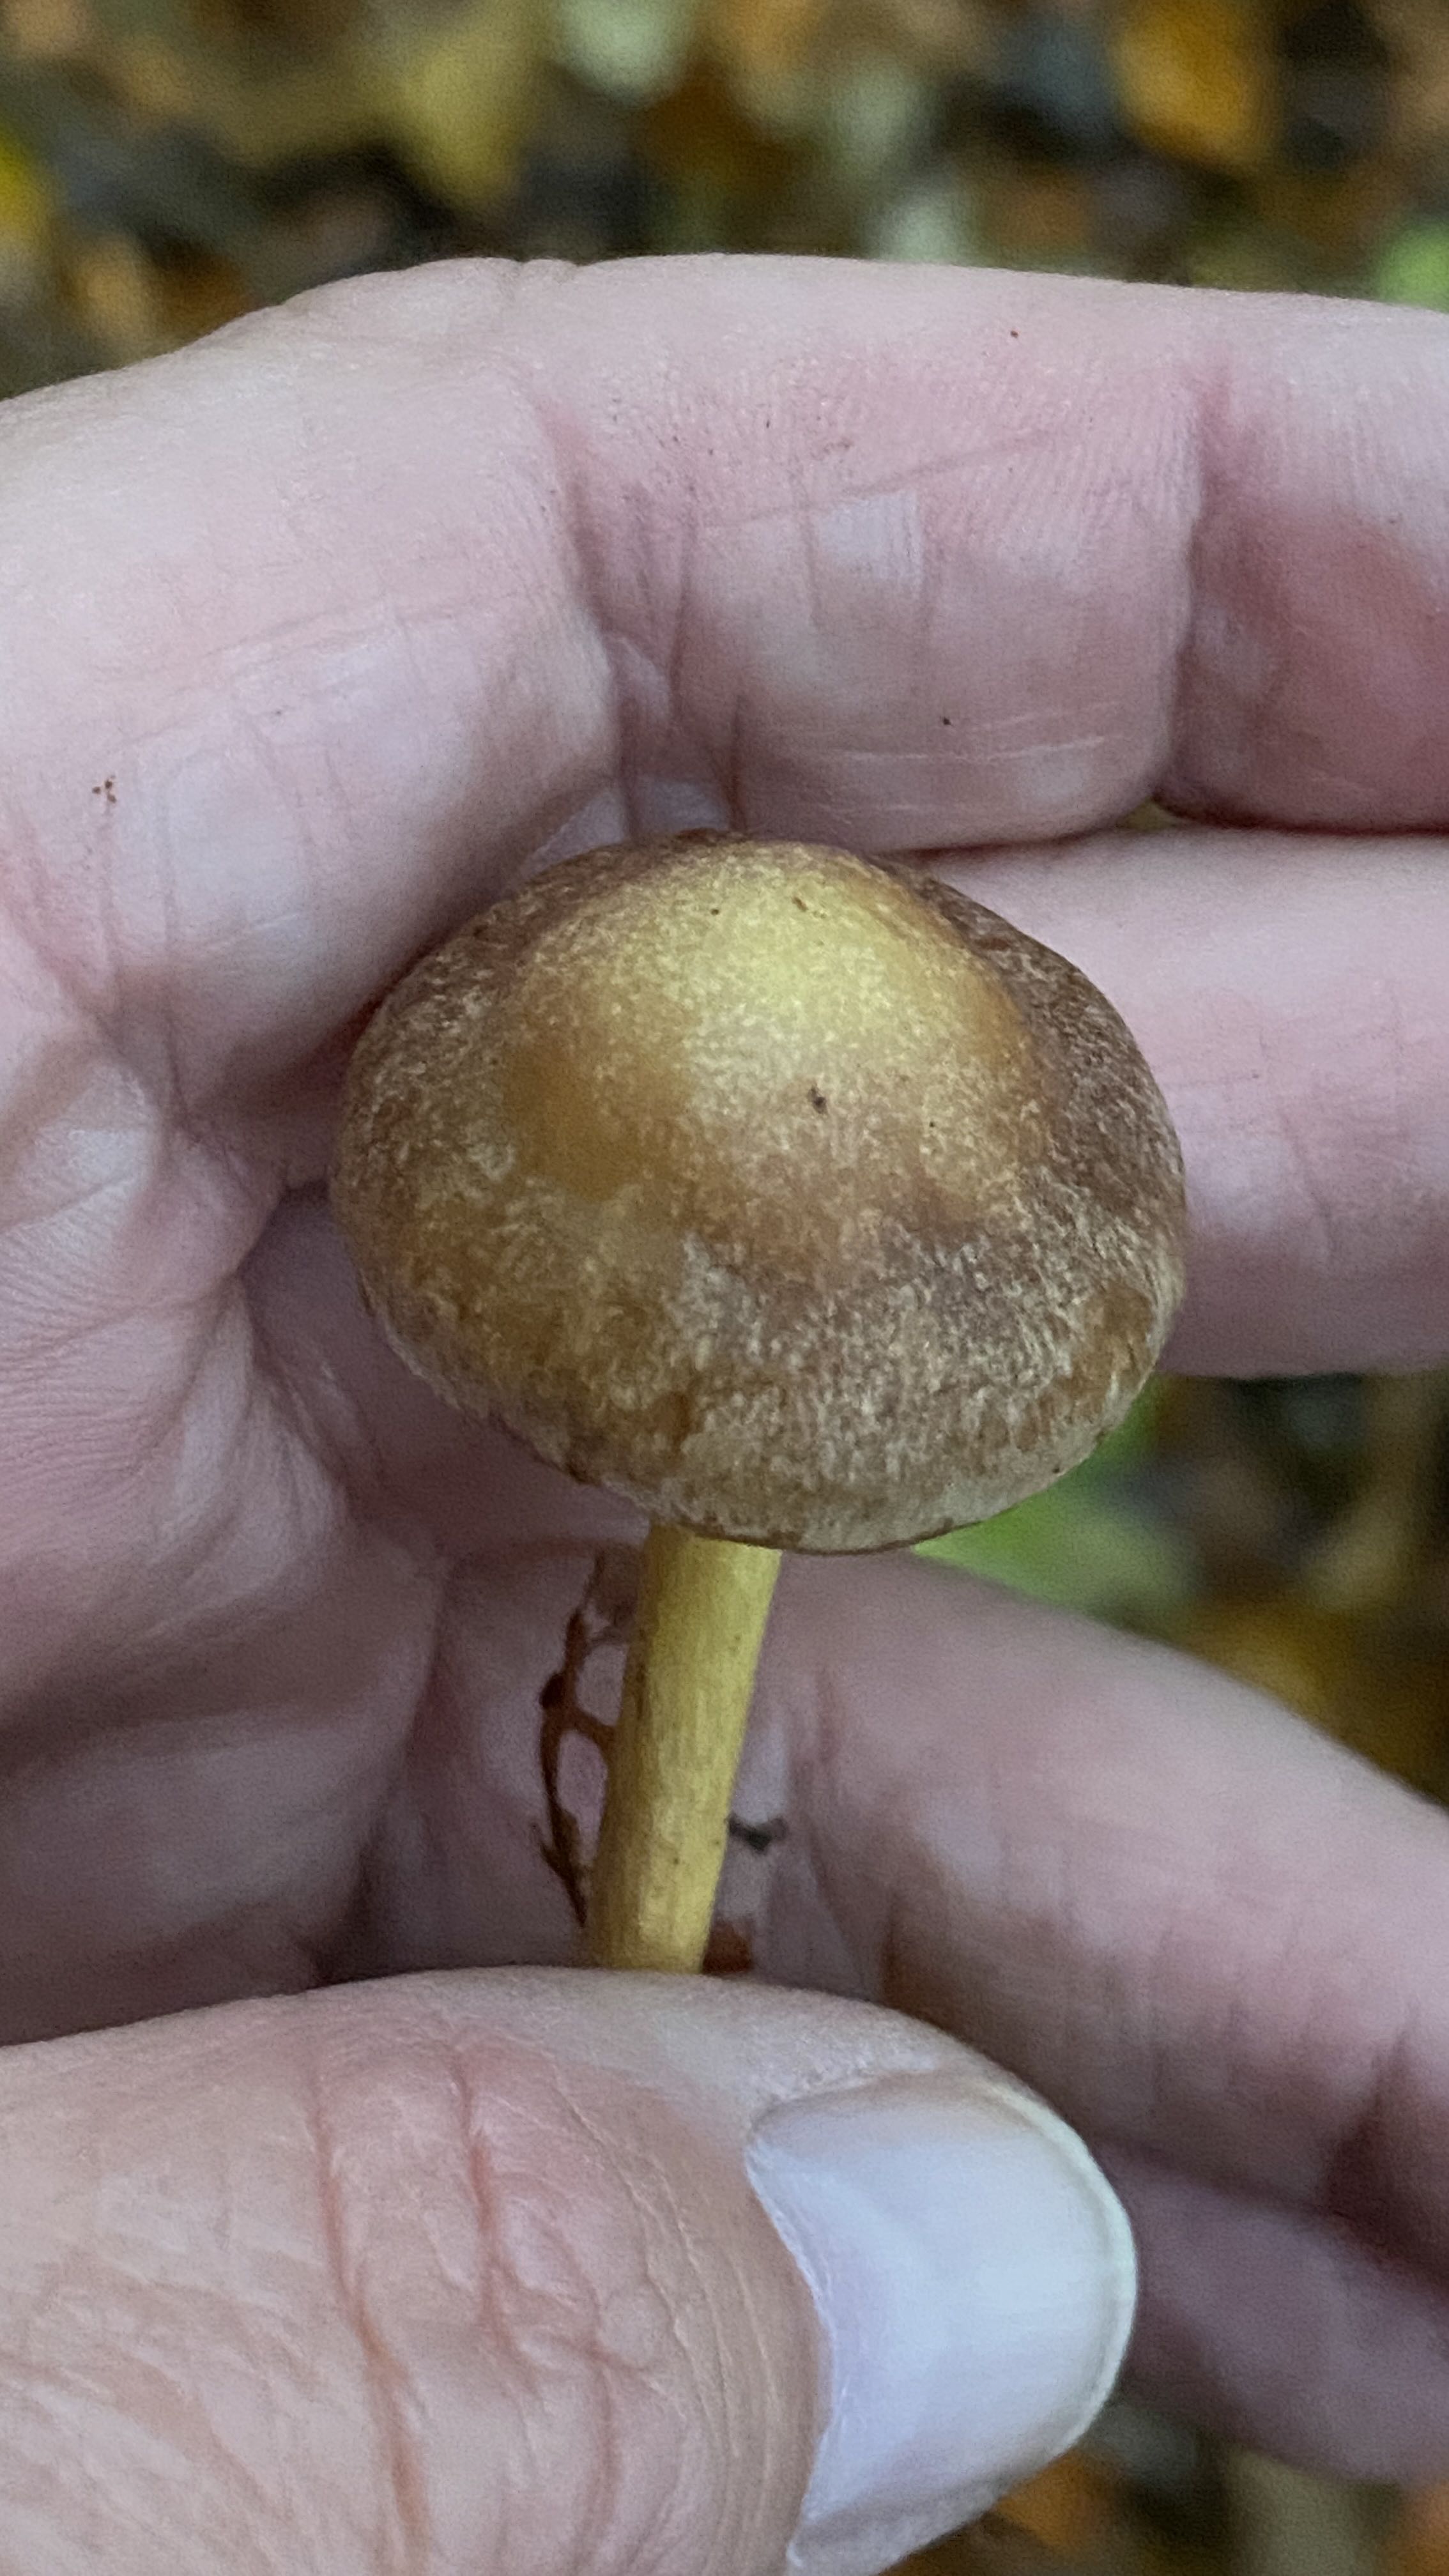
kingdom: Fungi
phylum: Basidiomycota
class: Agaricomycetes
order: Agaricales
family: Omphalotaceae
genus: Collybiopsis
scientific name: Collybiopsis peronata
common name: bestøvlet fladhat
